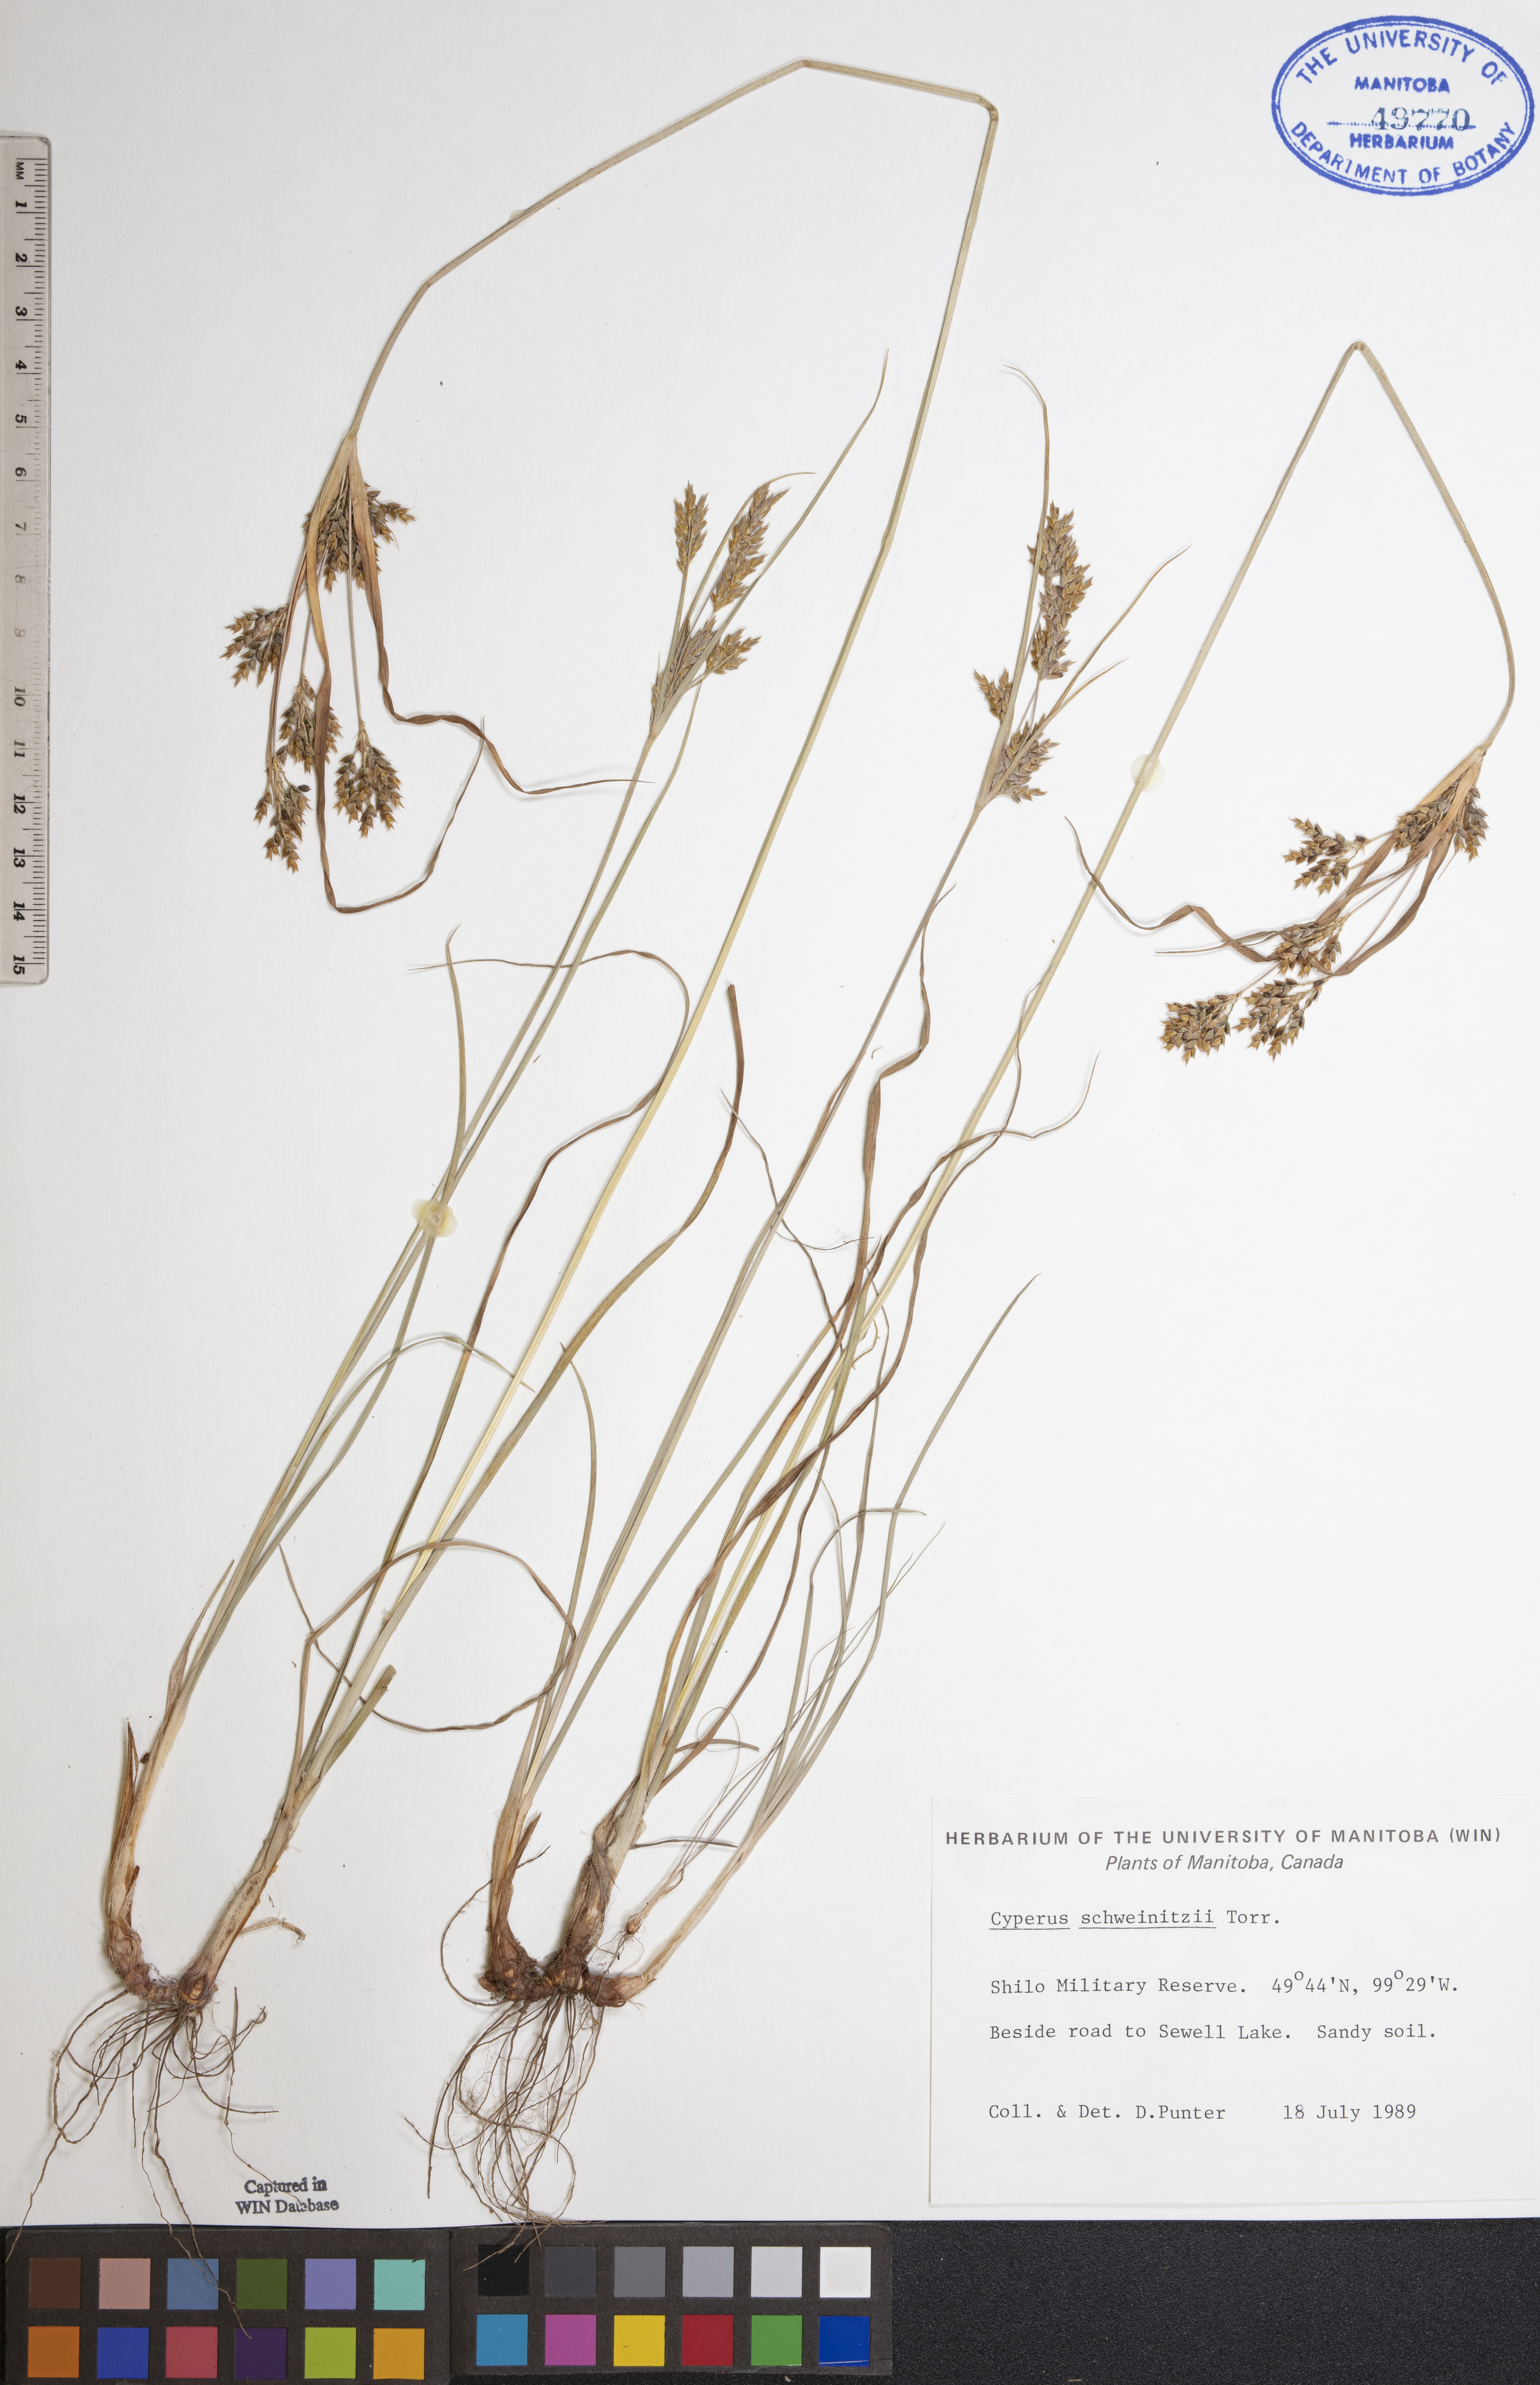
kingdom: Plantae
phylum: Tracheophyta
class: Liliopsida
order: Poales
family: Cyperaceae
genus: Cyperus
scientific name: Cyperus schweinitzii
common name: Schweinitz's cyperus
